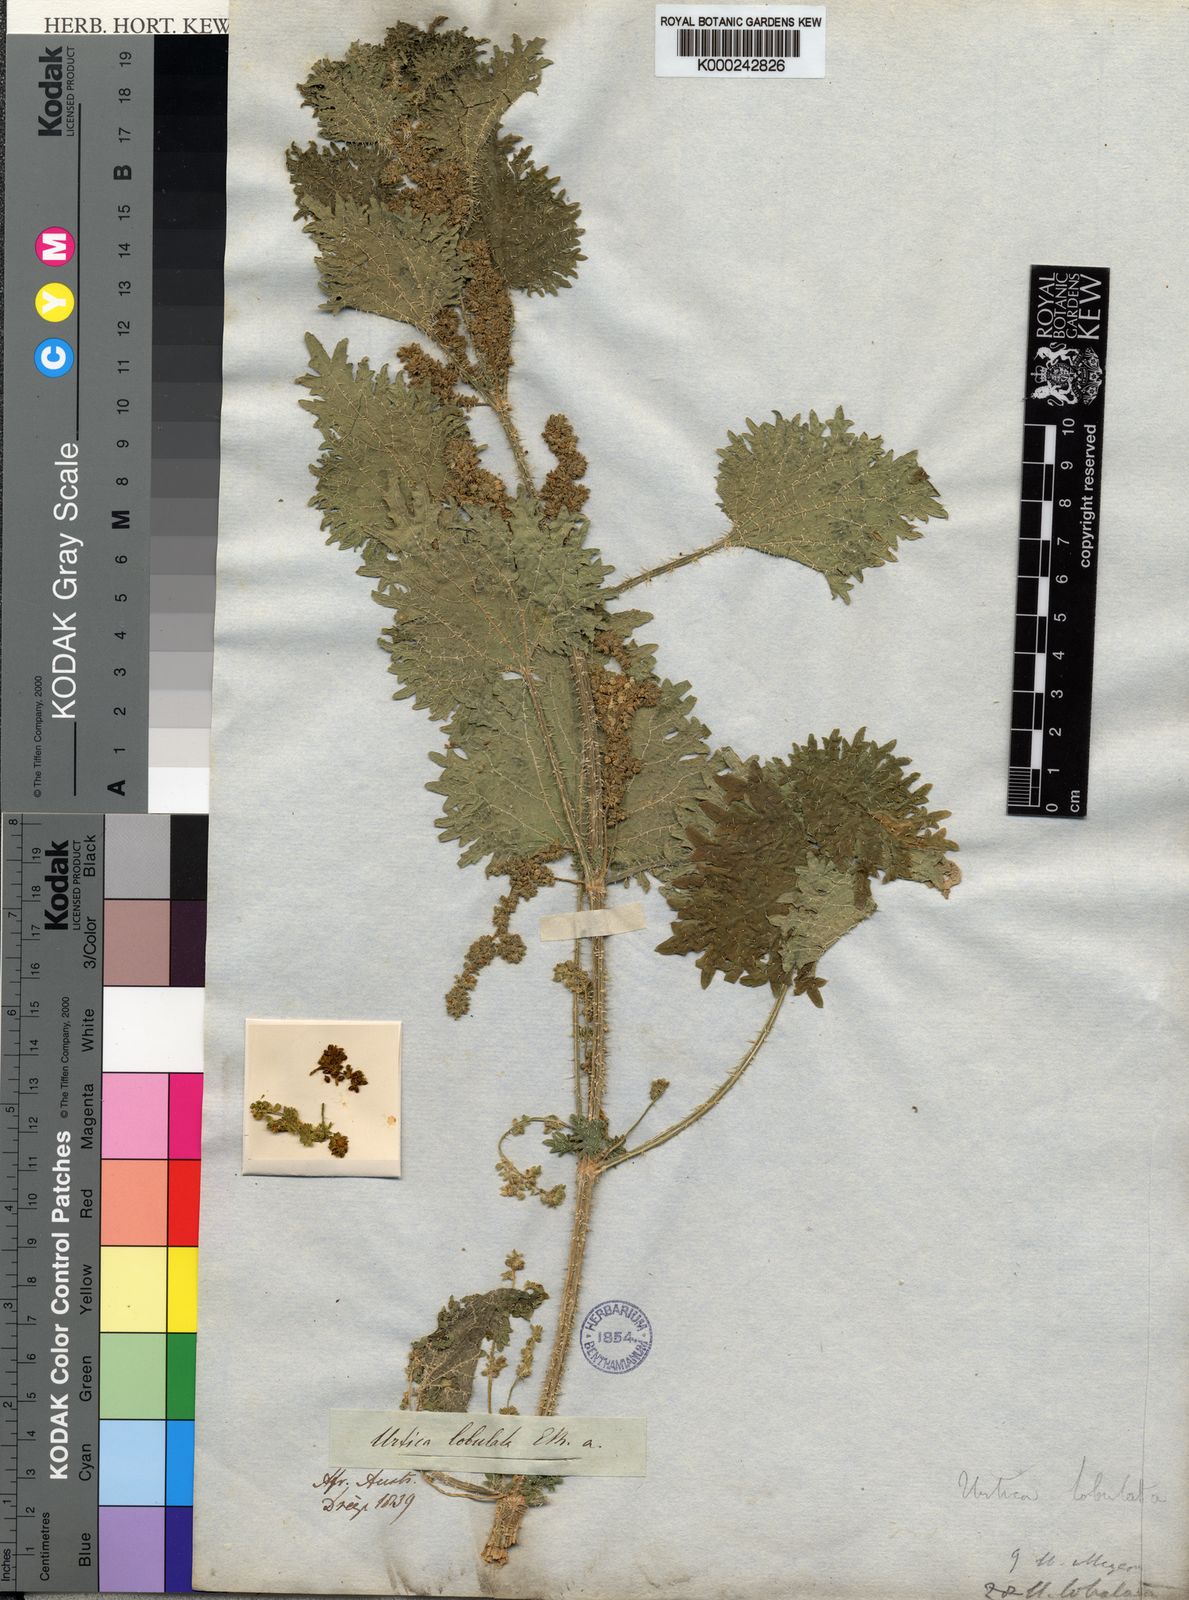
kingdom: Plantae
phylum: Tracheophyta
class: Magnoliopsida
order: Rosales
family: Urticaceae
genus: Urtica
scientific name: Urtica
